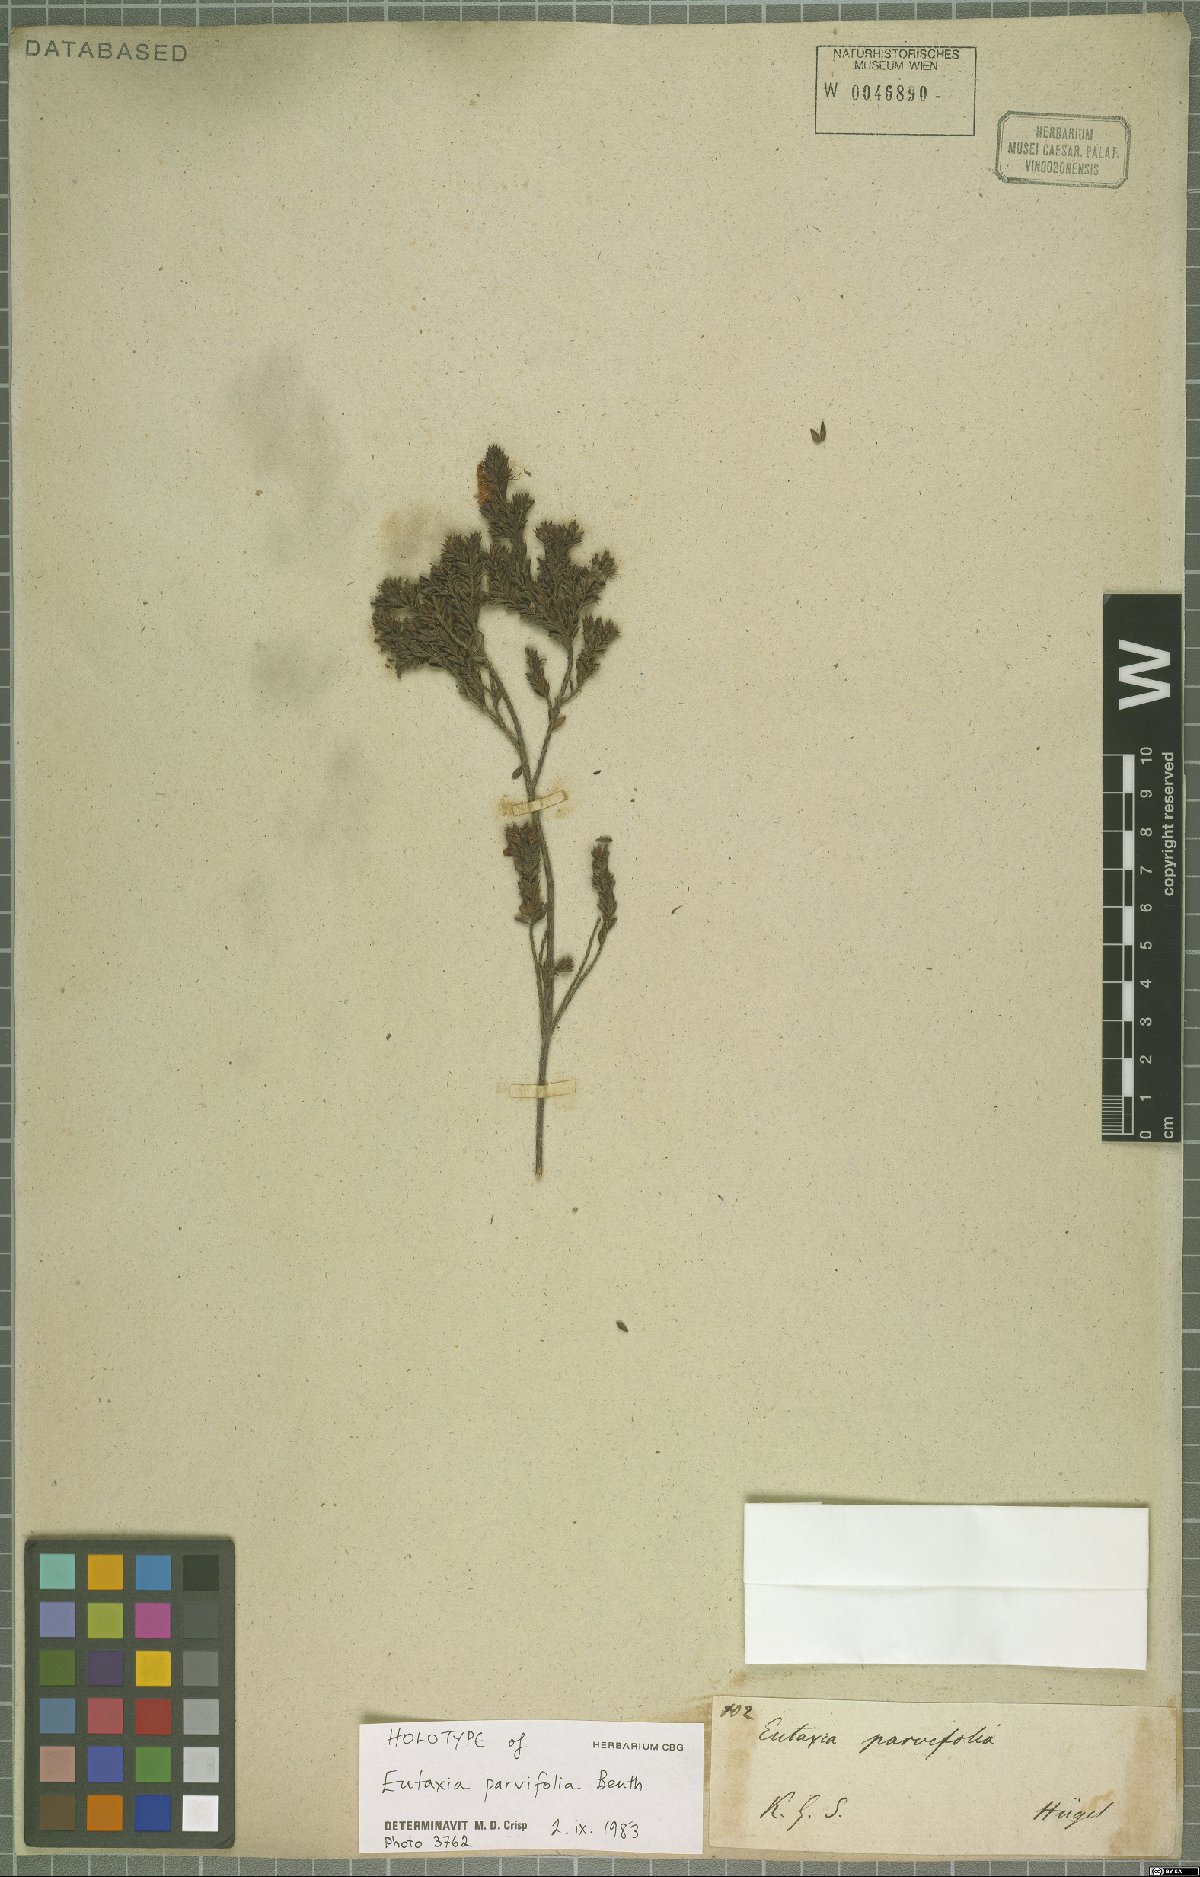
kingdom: Plantae
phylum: Tracheophyta
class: Magnoliopsida
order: Fabales
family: Fabaceae
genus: Eutaxia
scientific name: Eutaxia parvifolia
